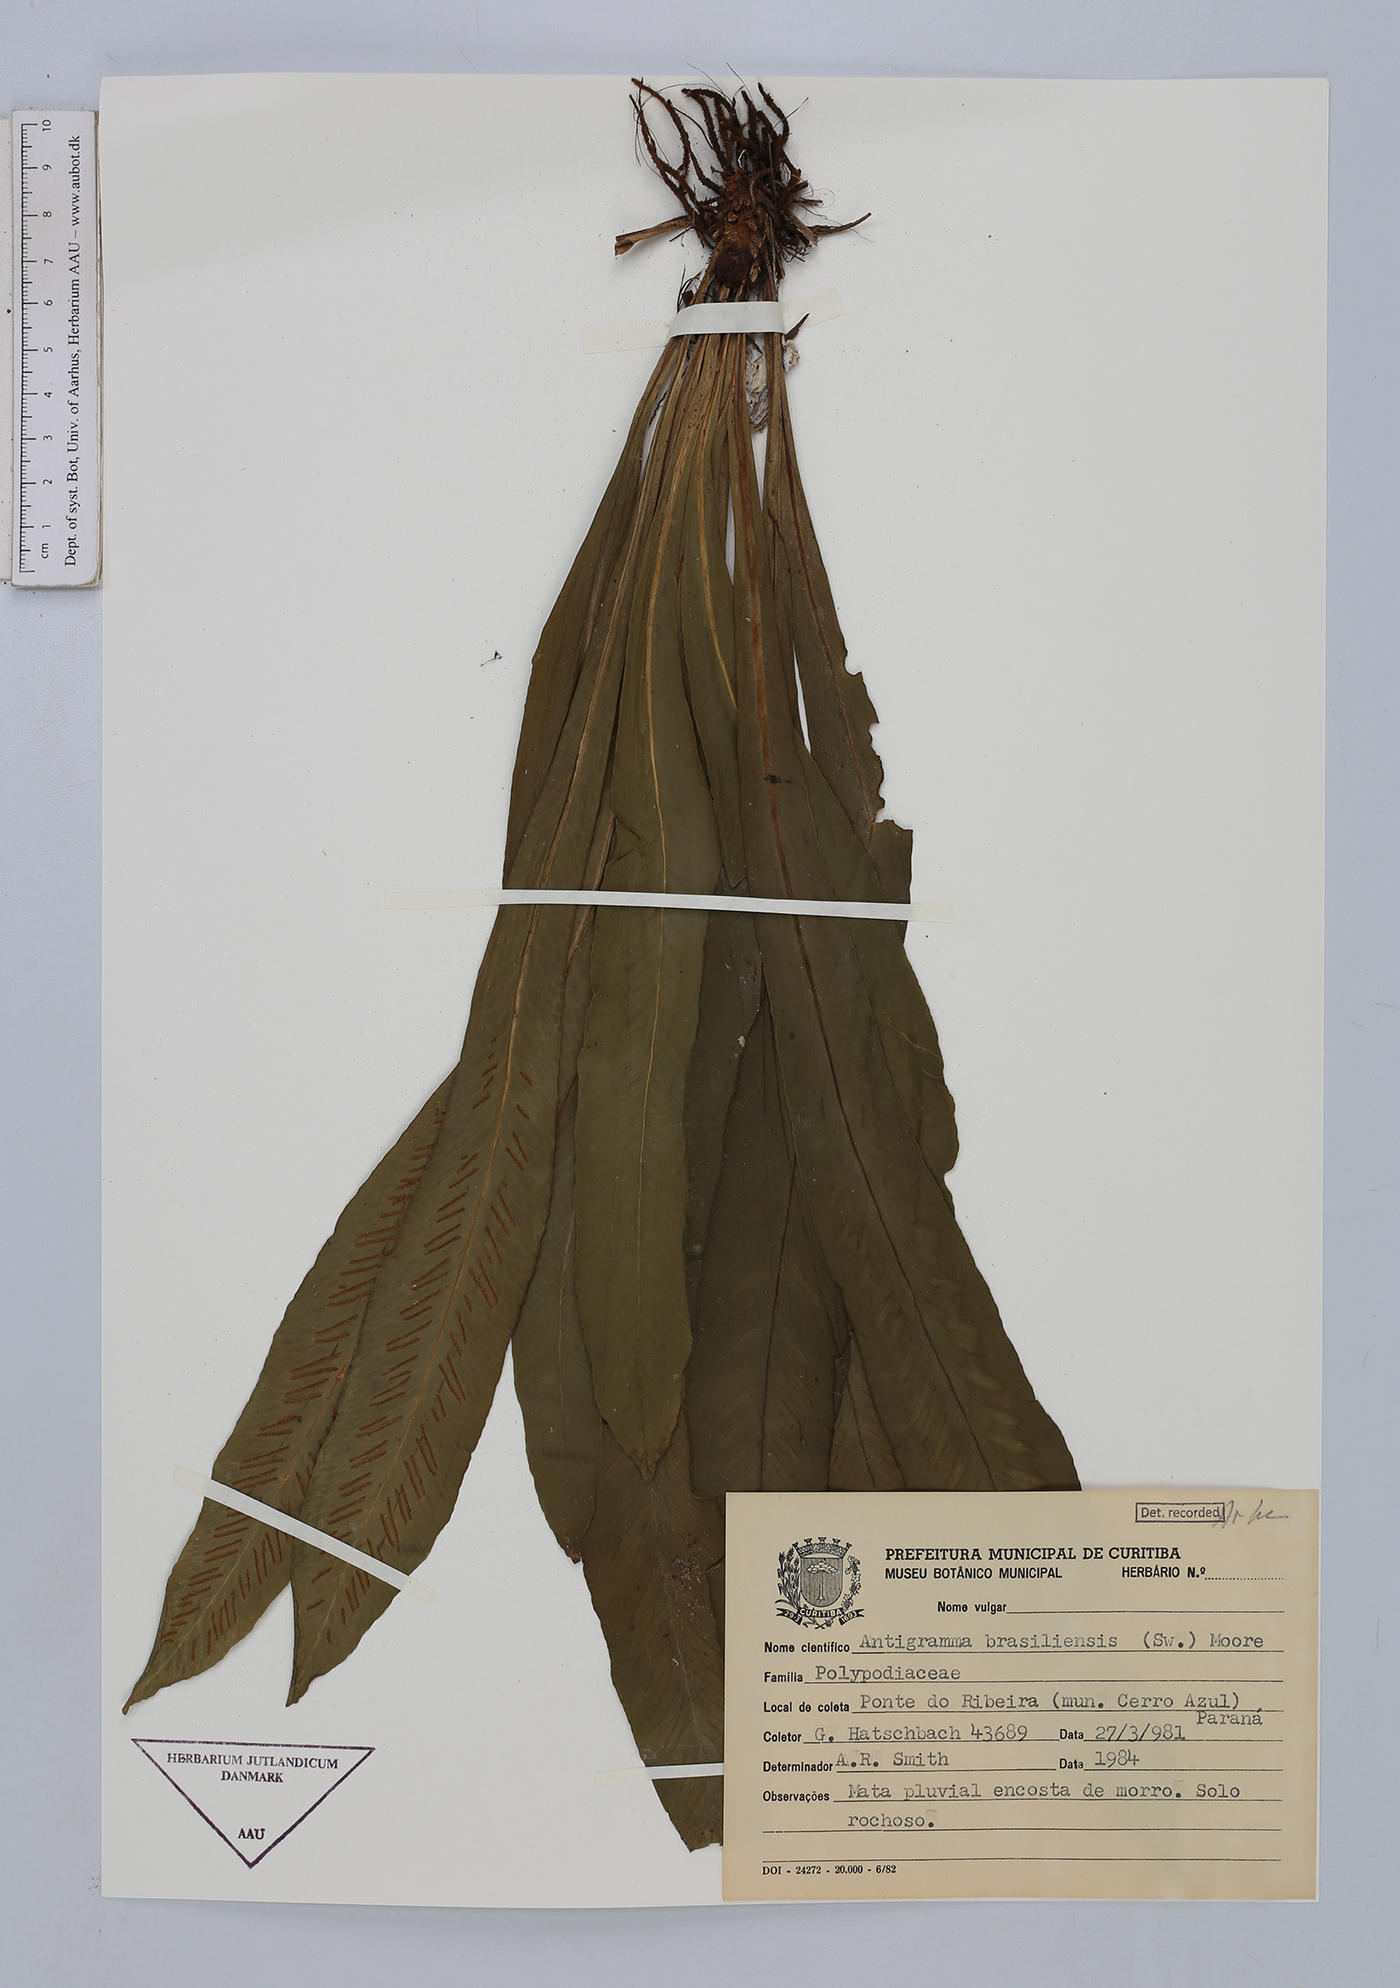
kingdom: Plantae
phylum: Tracheophyta
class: Polypodiopsida
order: Polypodiales
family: Aspleniaceae
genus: Asplenium
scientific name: Asplenium brasiliense
